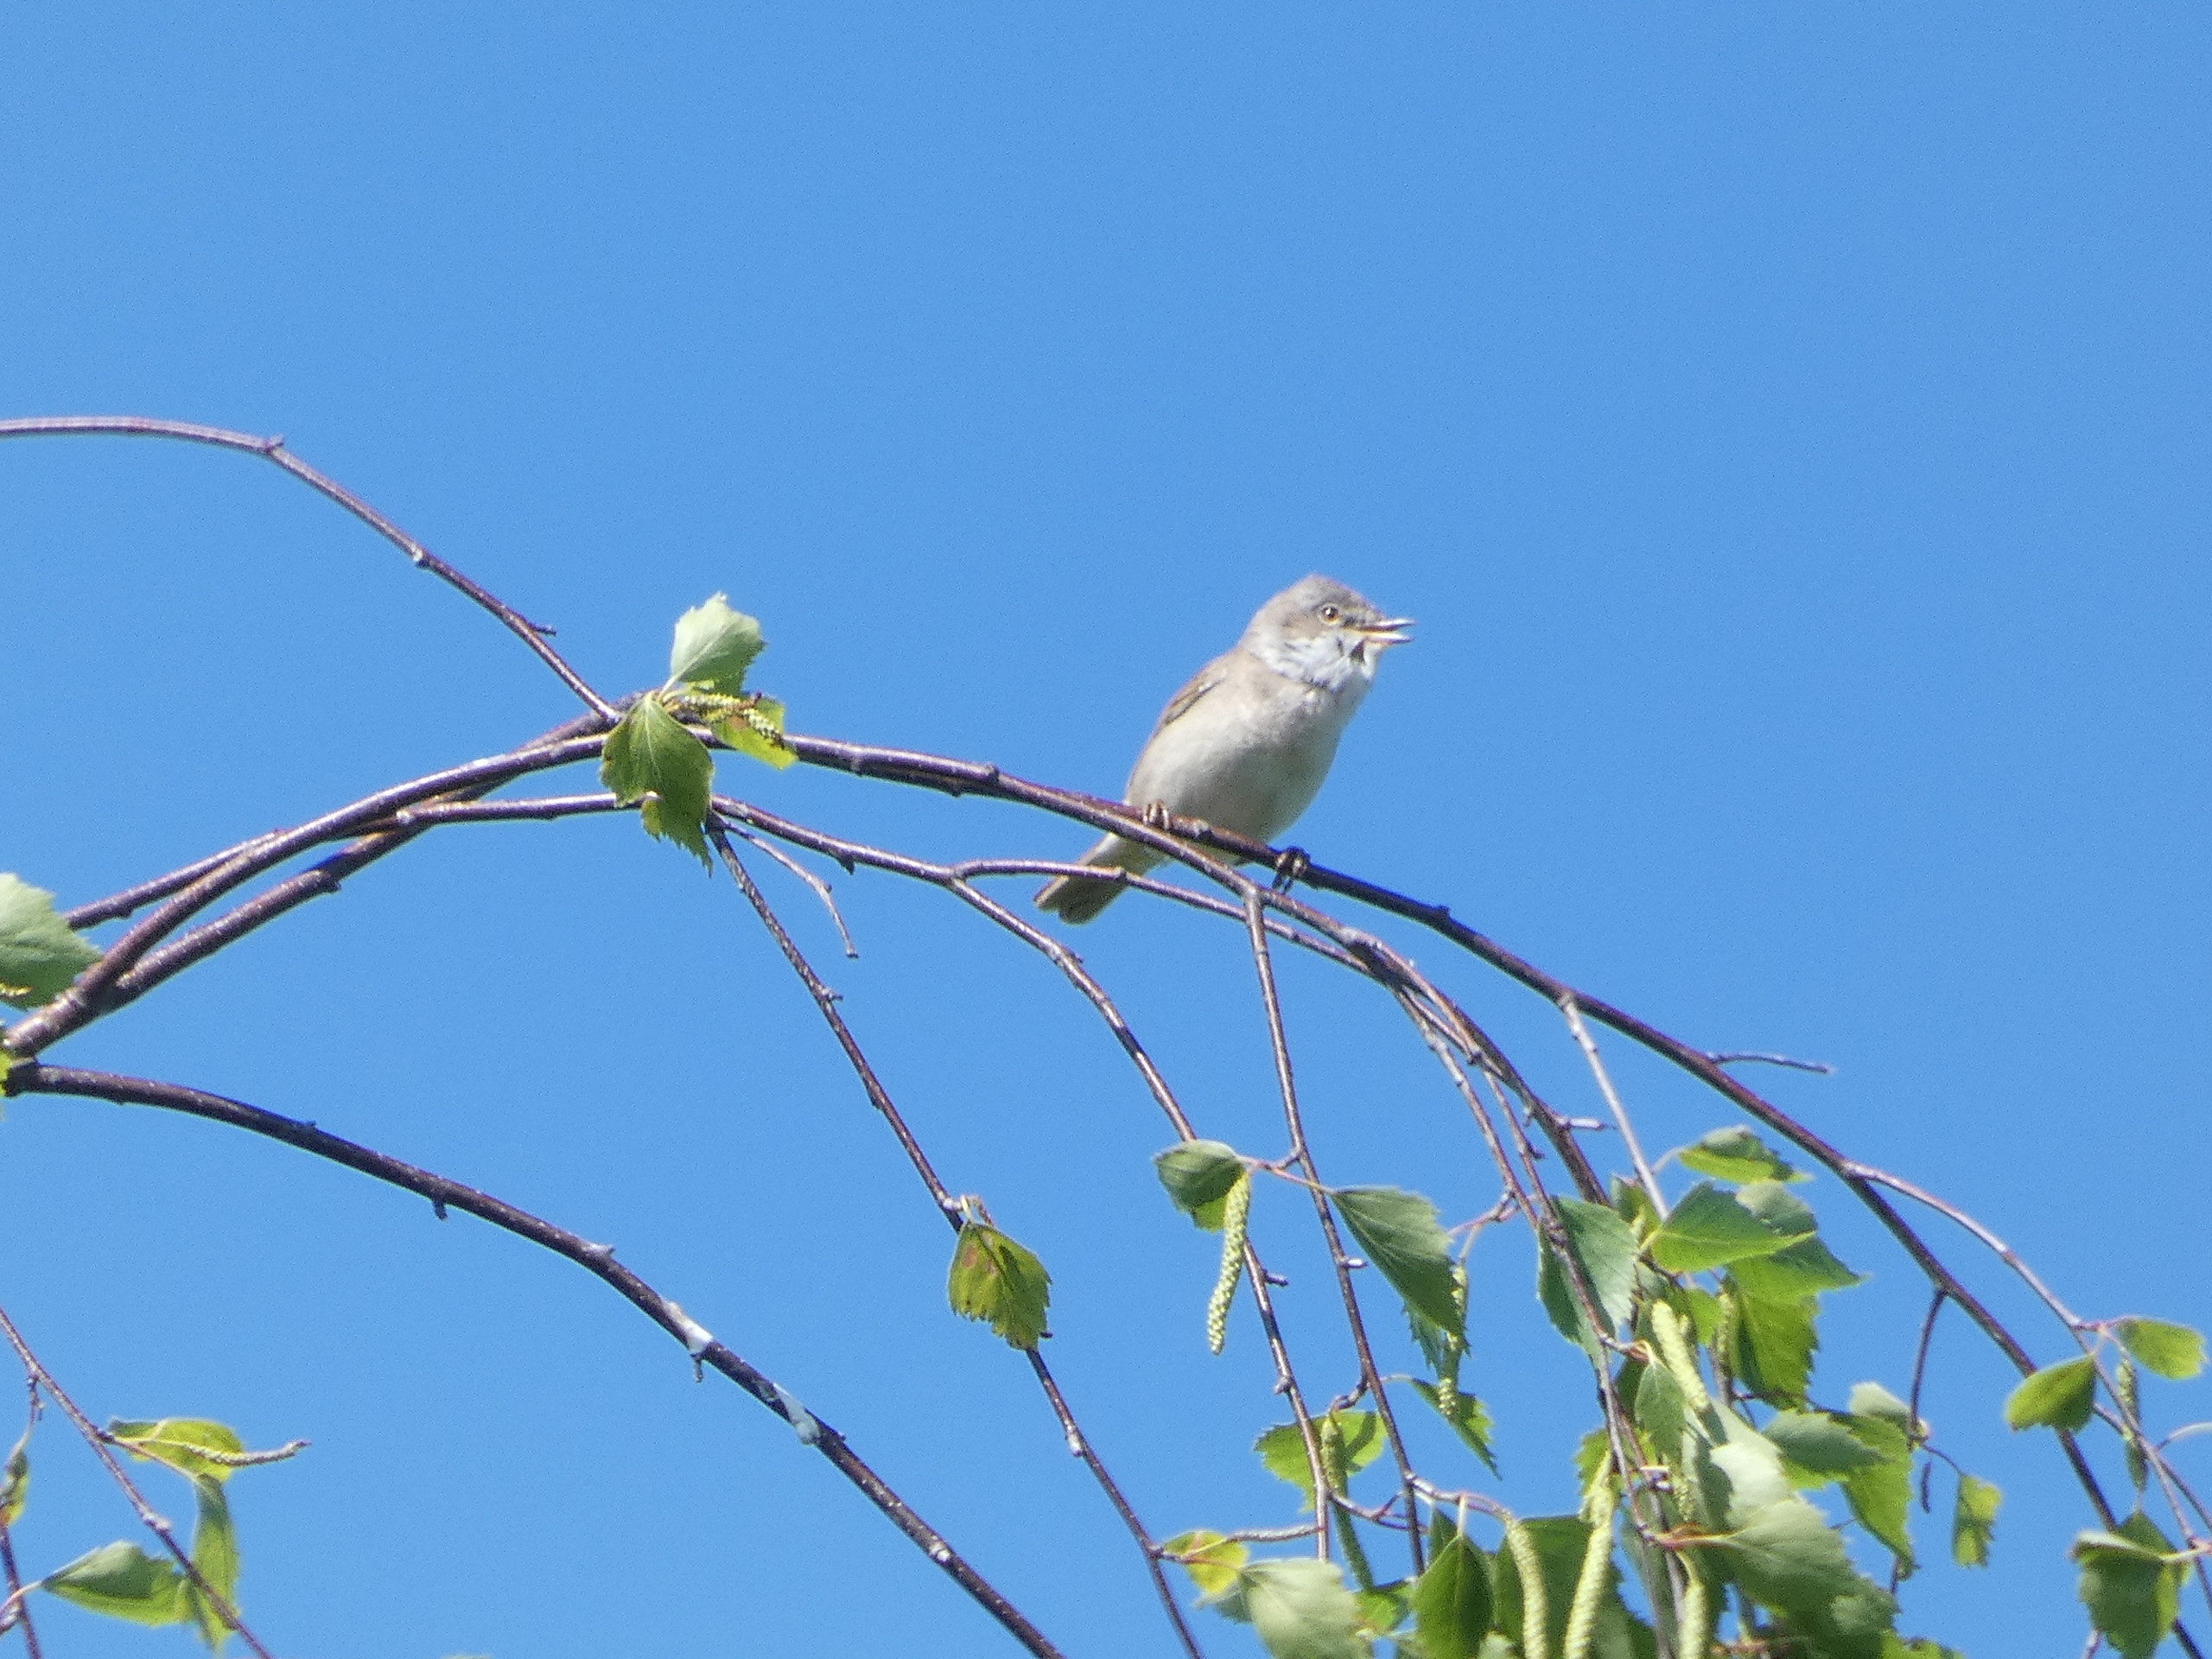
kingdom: Animalia
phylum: Chordata
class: Aves
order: Passeriformes
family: Sylviidae
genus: Sylvia
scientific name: Sylvia communis
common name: Tornsanger
